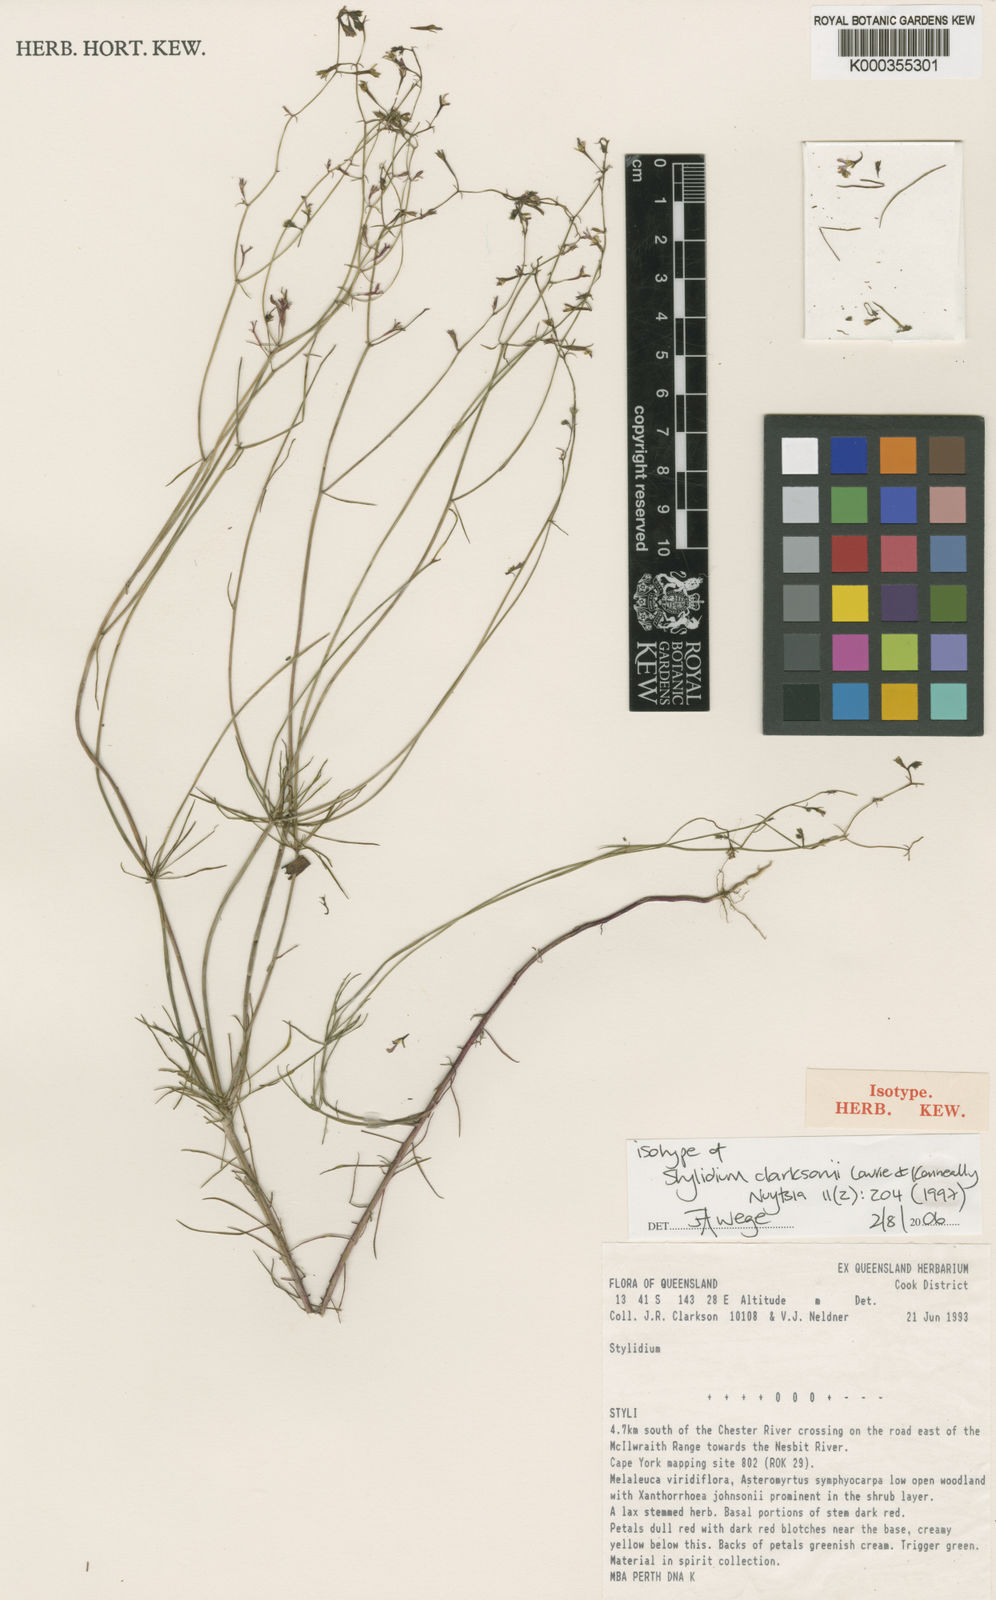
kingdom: Plantae
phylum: Tracheophyta
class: Magnoliopsida
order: Asterales
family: Stylidiaceae
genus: Stylidium
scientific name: Stylidium
